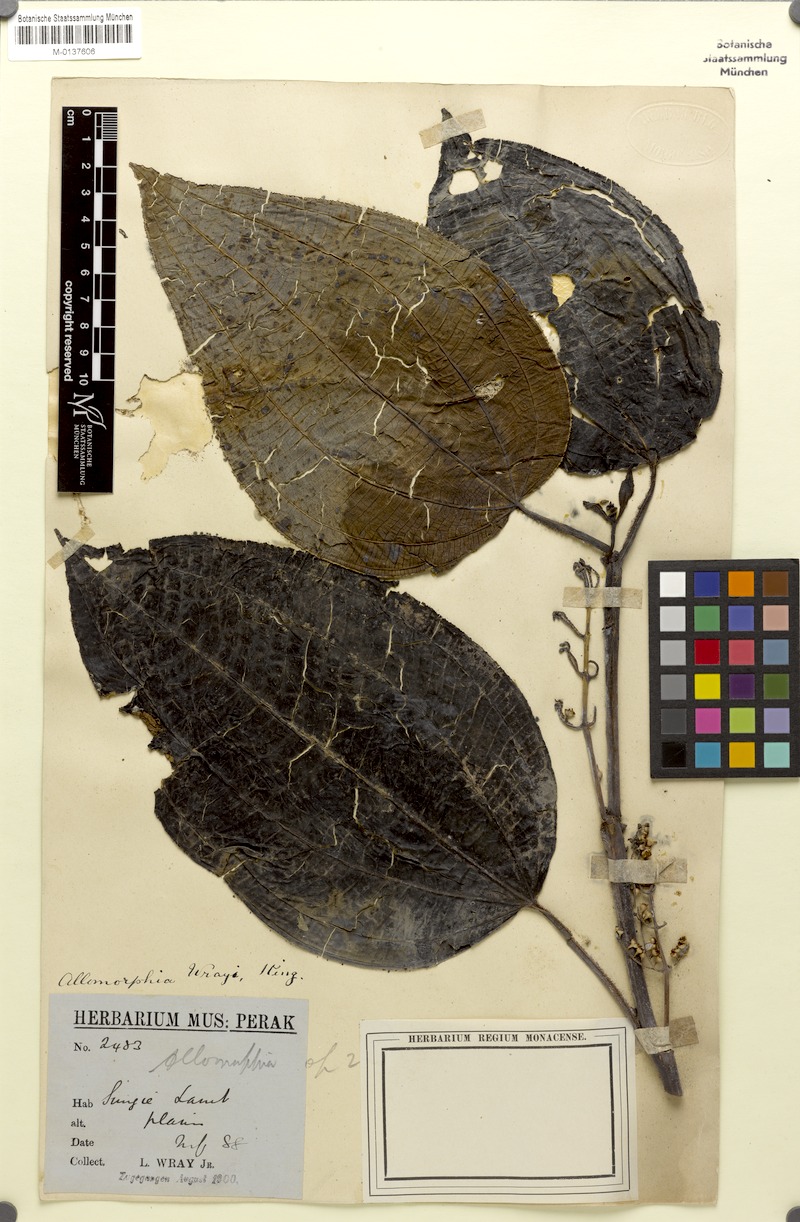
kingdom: Plantae
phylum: Tracheophyta
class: Magnoliopsida
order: Myrtales
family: Melastomataceae
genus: Campimia
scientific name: Campimia wrayi
